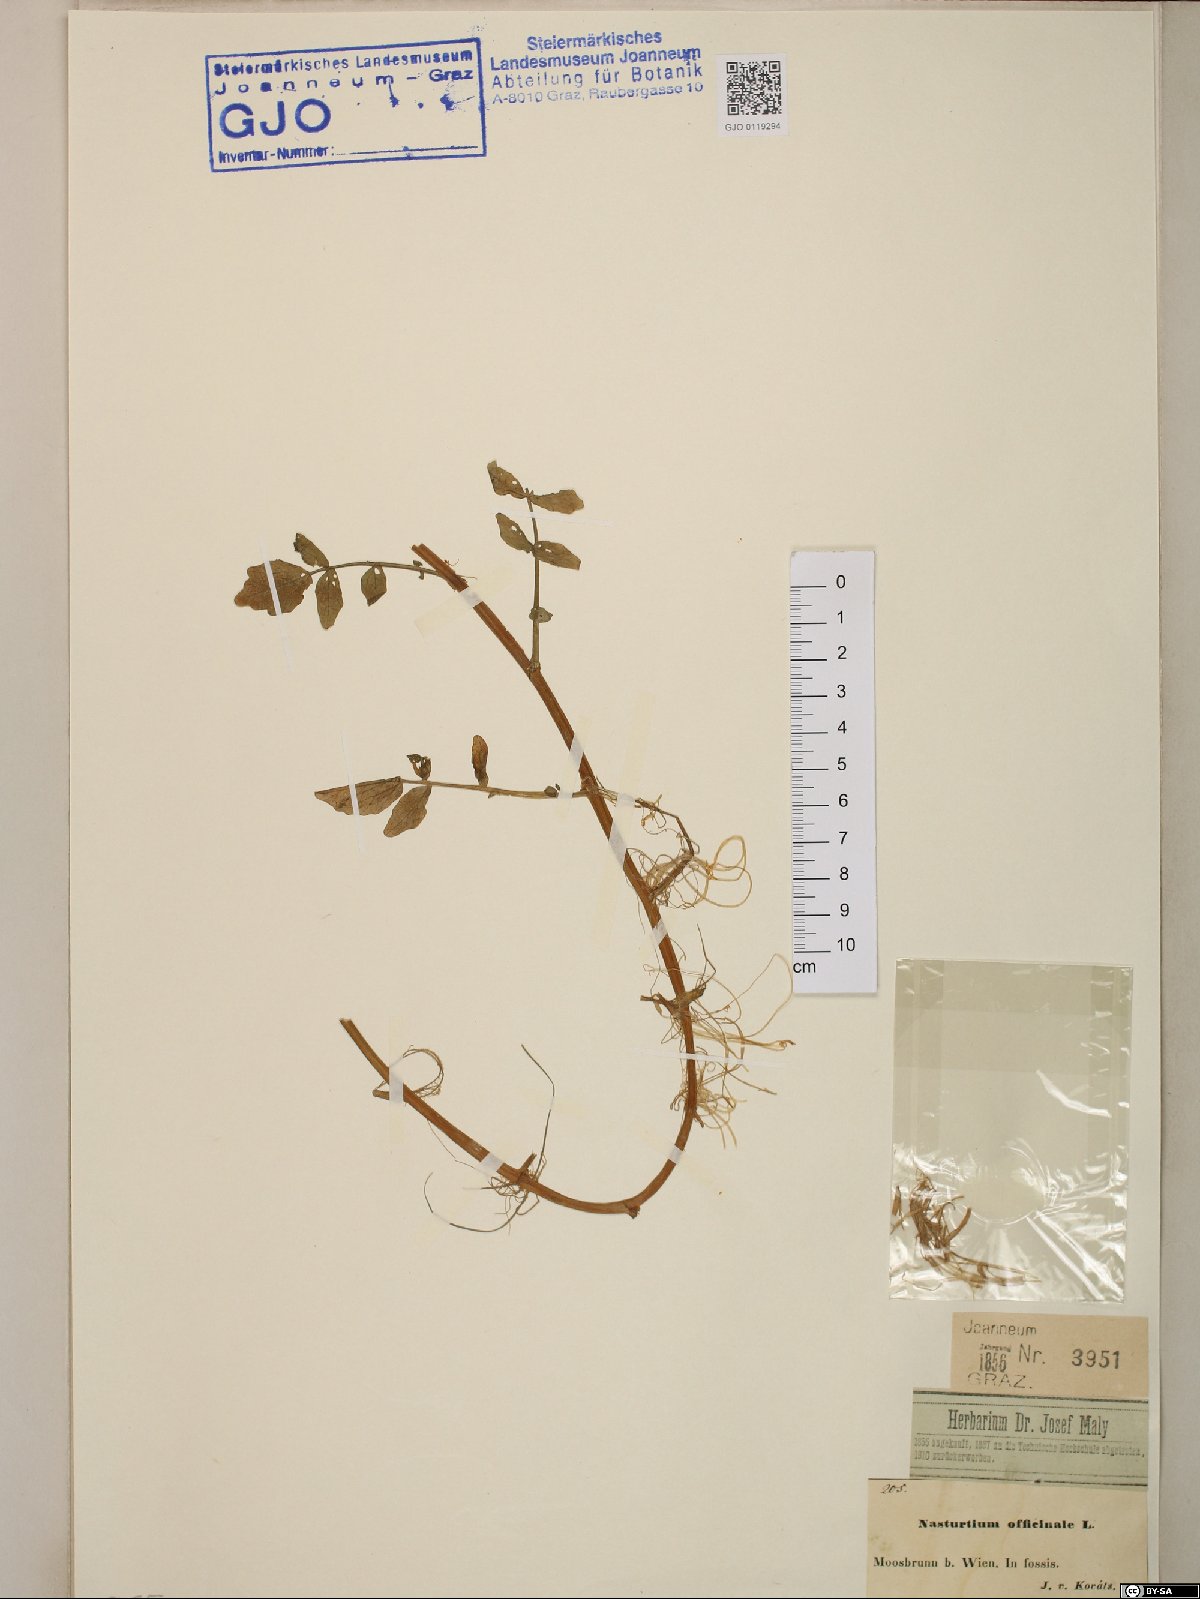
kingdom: Plantae
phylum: Tracheophyta
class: Magnoliopsida
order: Brassicales
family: Brassicaceae
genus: Nasturtium
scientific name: Nasturtium officinale
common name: Watercress
